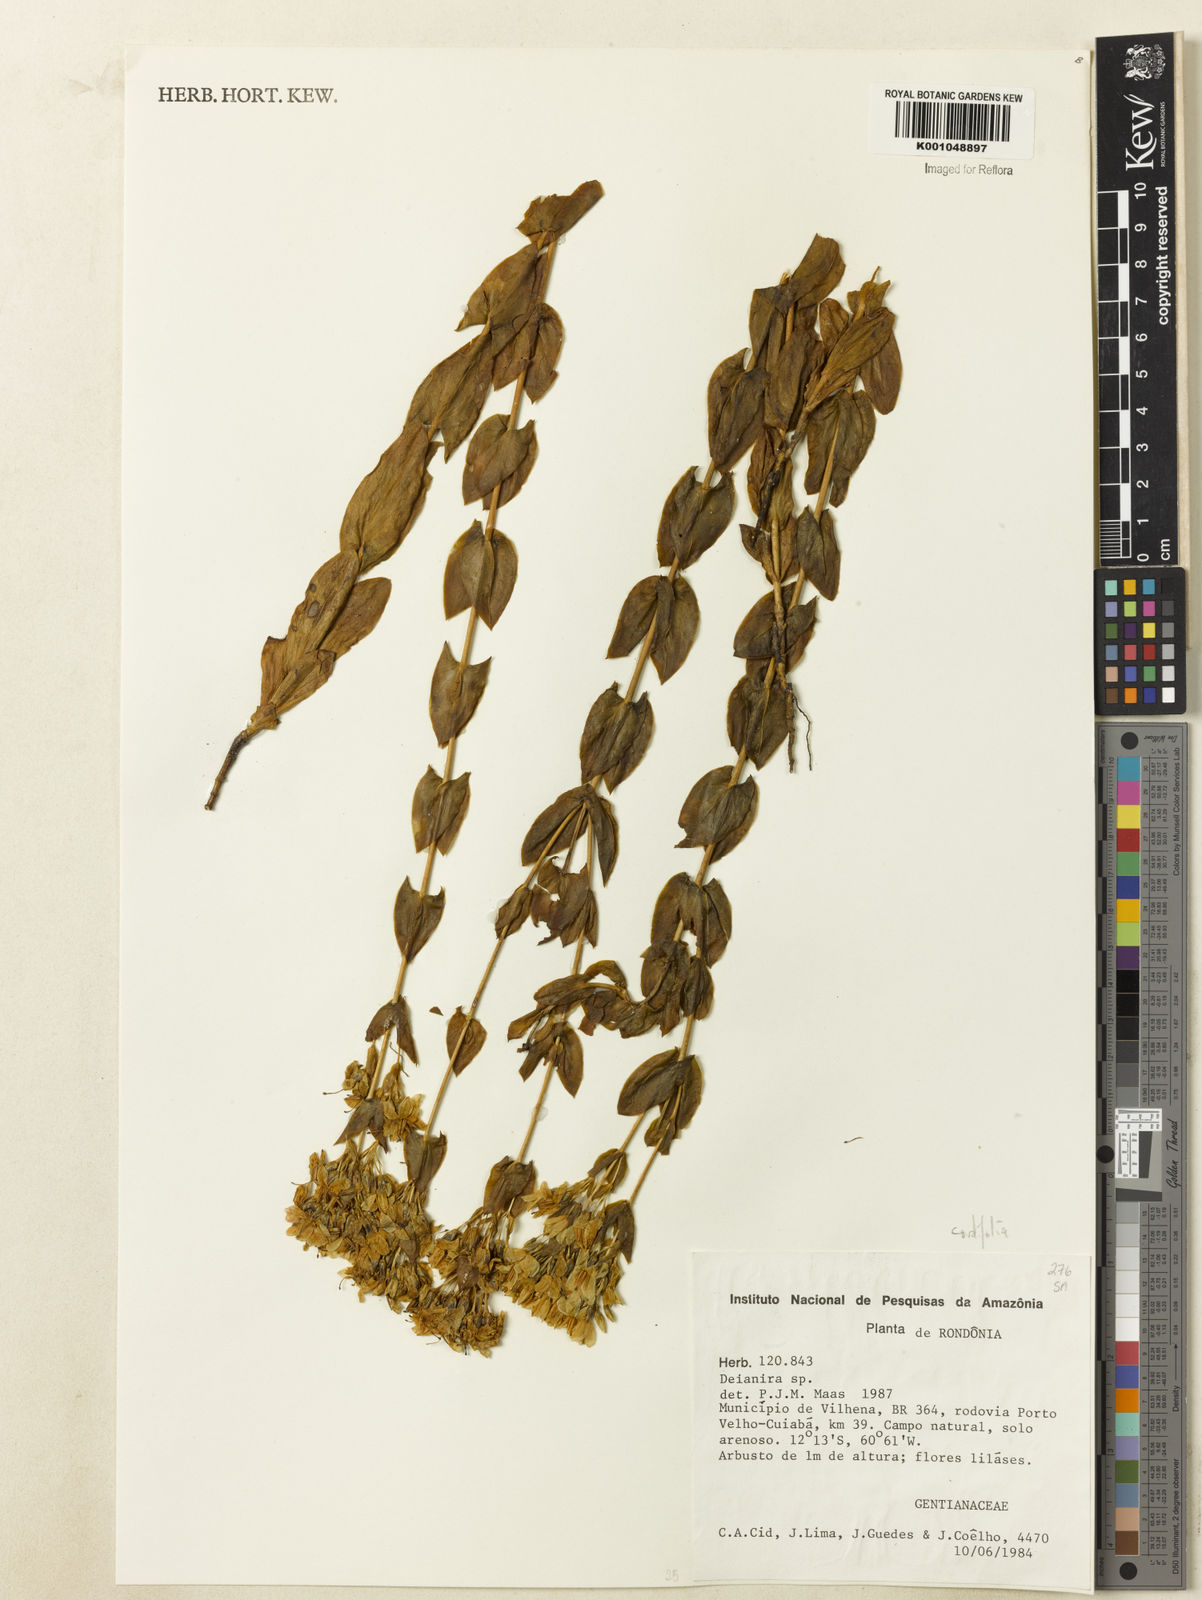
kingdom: Plantae
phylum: Tracheophyta
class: Magnoliopsida
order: Gentianales
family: Gentianaceae
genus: Deianira
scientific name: Deianira cordifolia
